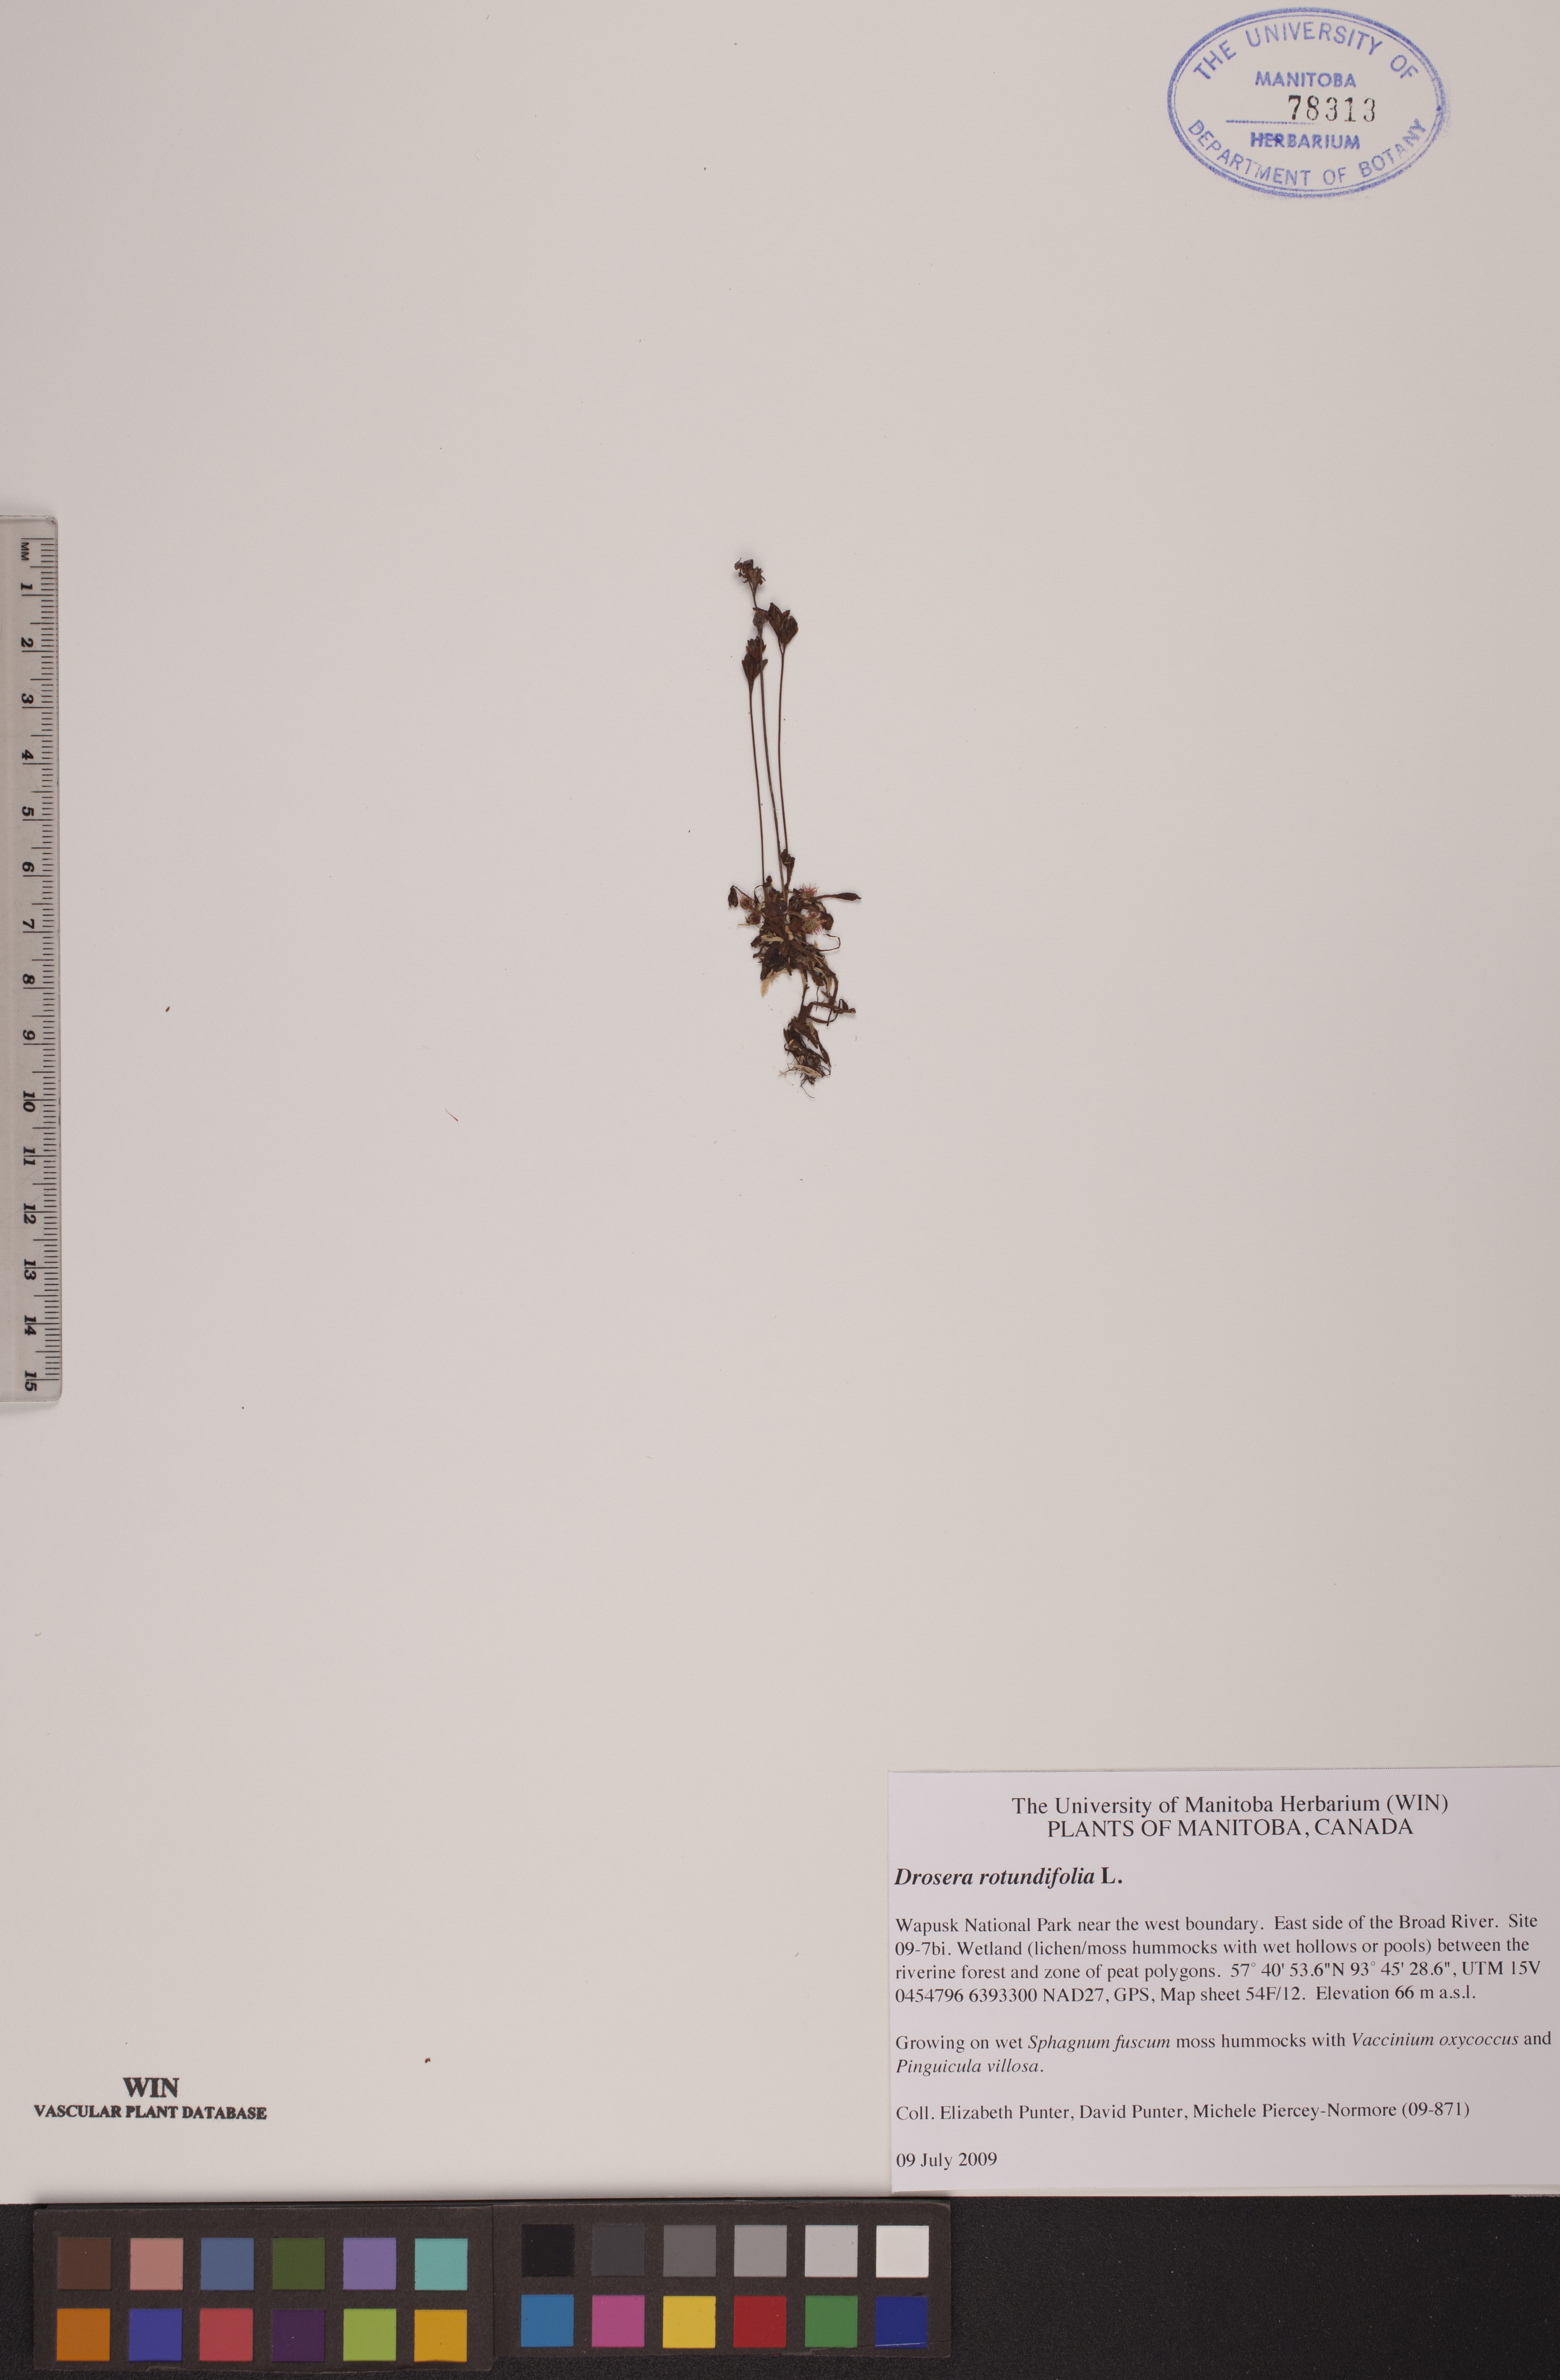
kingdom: Plantae
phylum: Tracheophyta
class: Magnoliopsida
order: Caryophyllales
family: Droseraceae
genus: Drosera
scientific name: Drosera rotundifolia
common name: Round-leaved sundew
